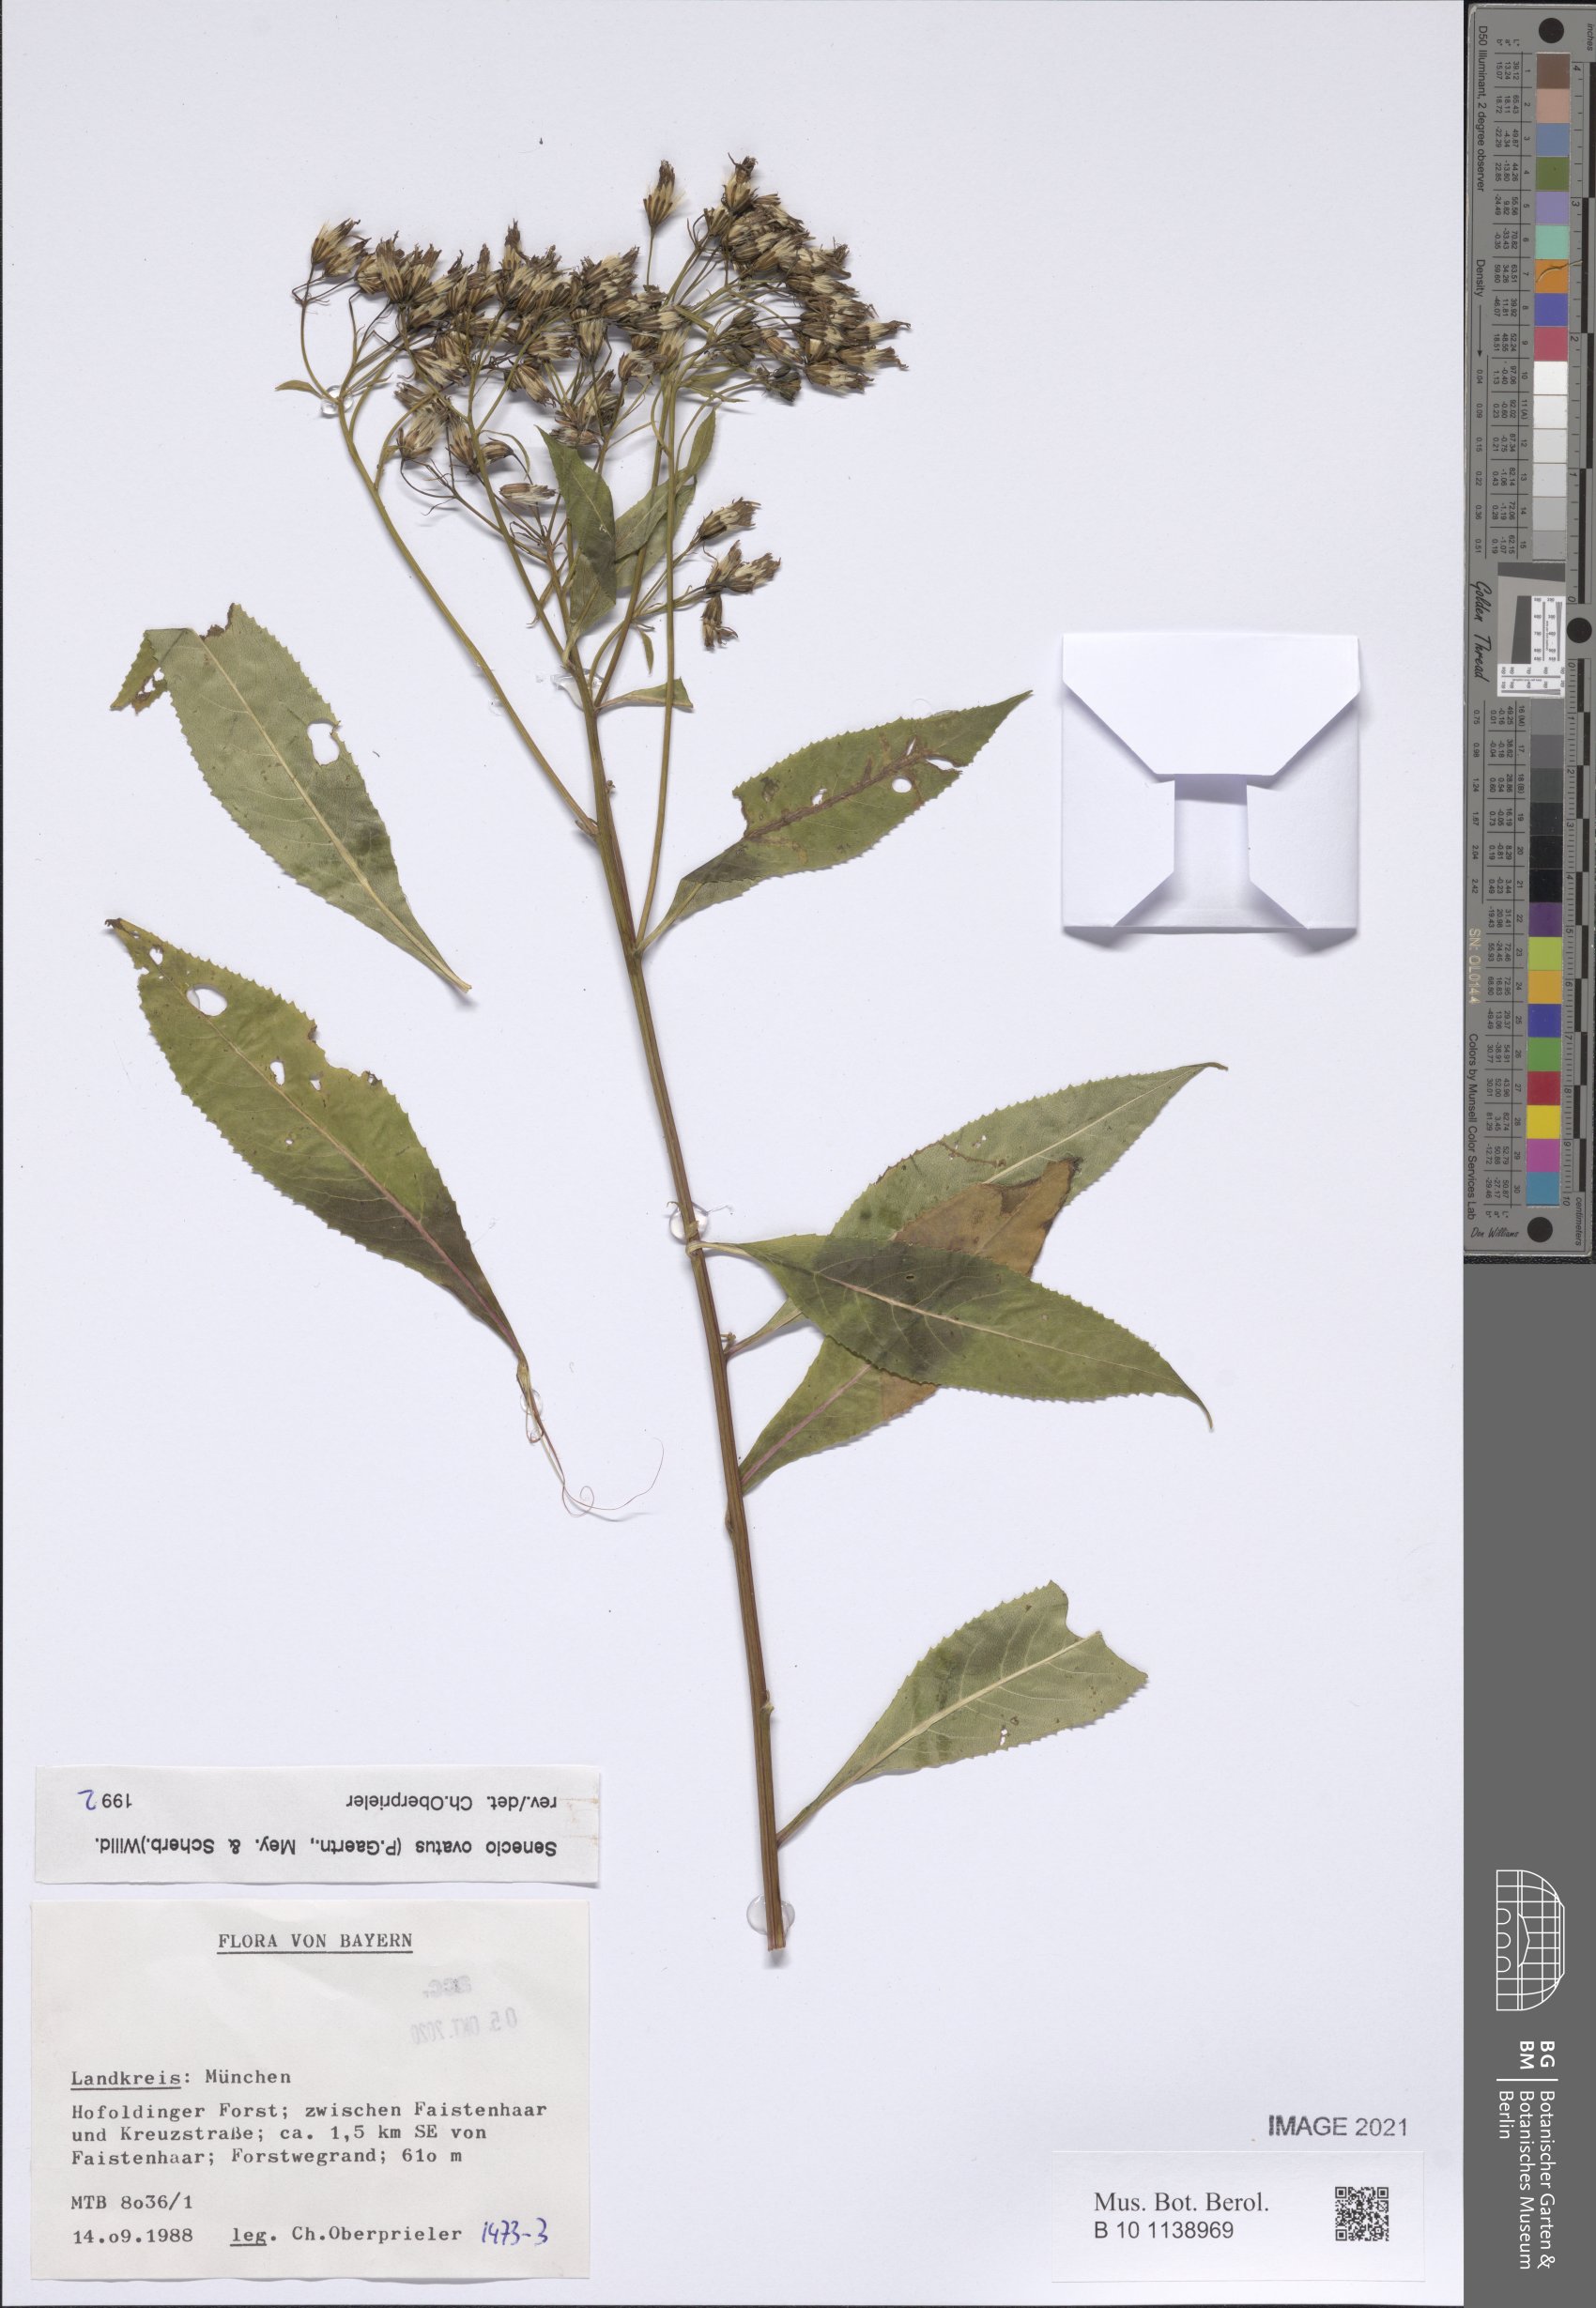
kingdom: Plantae
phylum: Tracheophyta
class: Magnoliopsida
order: Asterales
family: Asteraceae
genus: Senecio
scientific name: Senecio ovatus
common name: Wood ragwort
